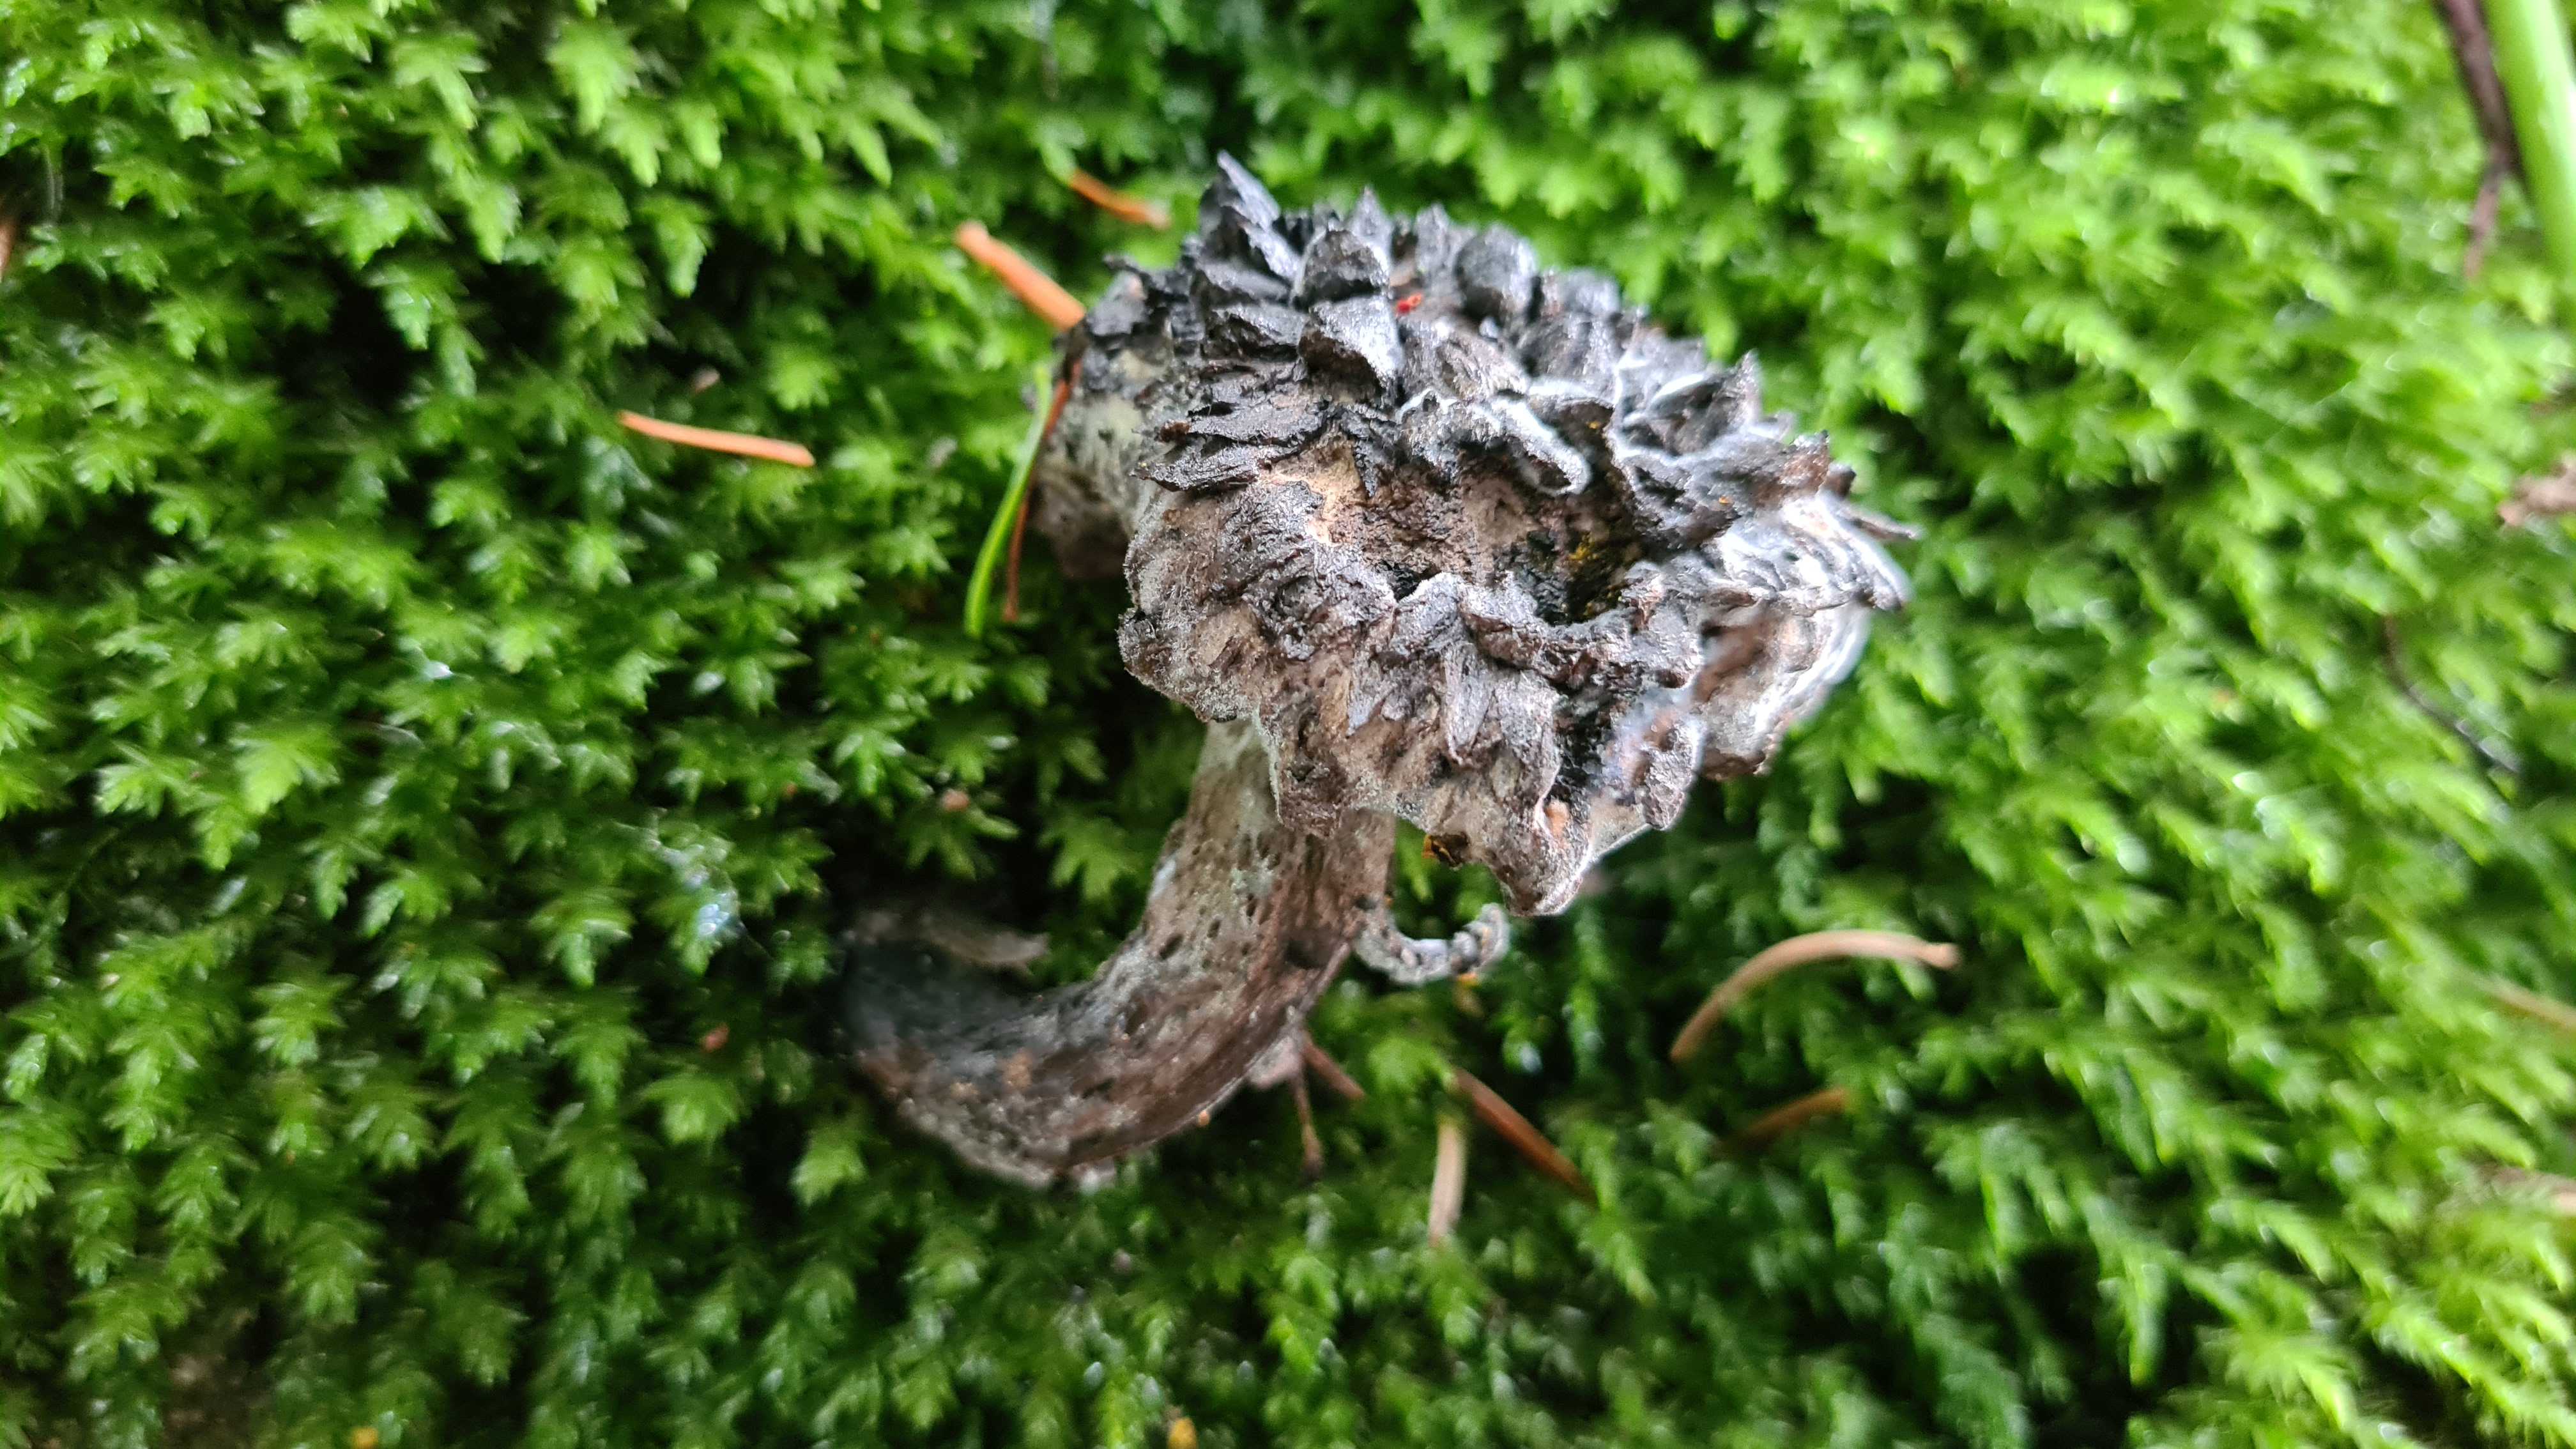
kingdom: Fungi
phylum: Basidiomycota
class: Agaricomycetes
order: Boletales
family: Boletaceae
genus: Strobilomyces
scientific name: Strobilomyces strobilaceus
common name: koglerørhat
